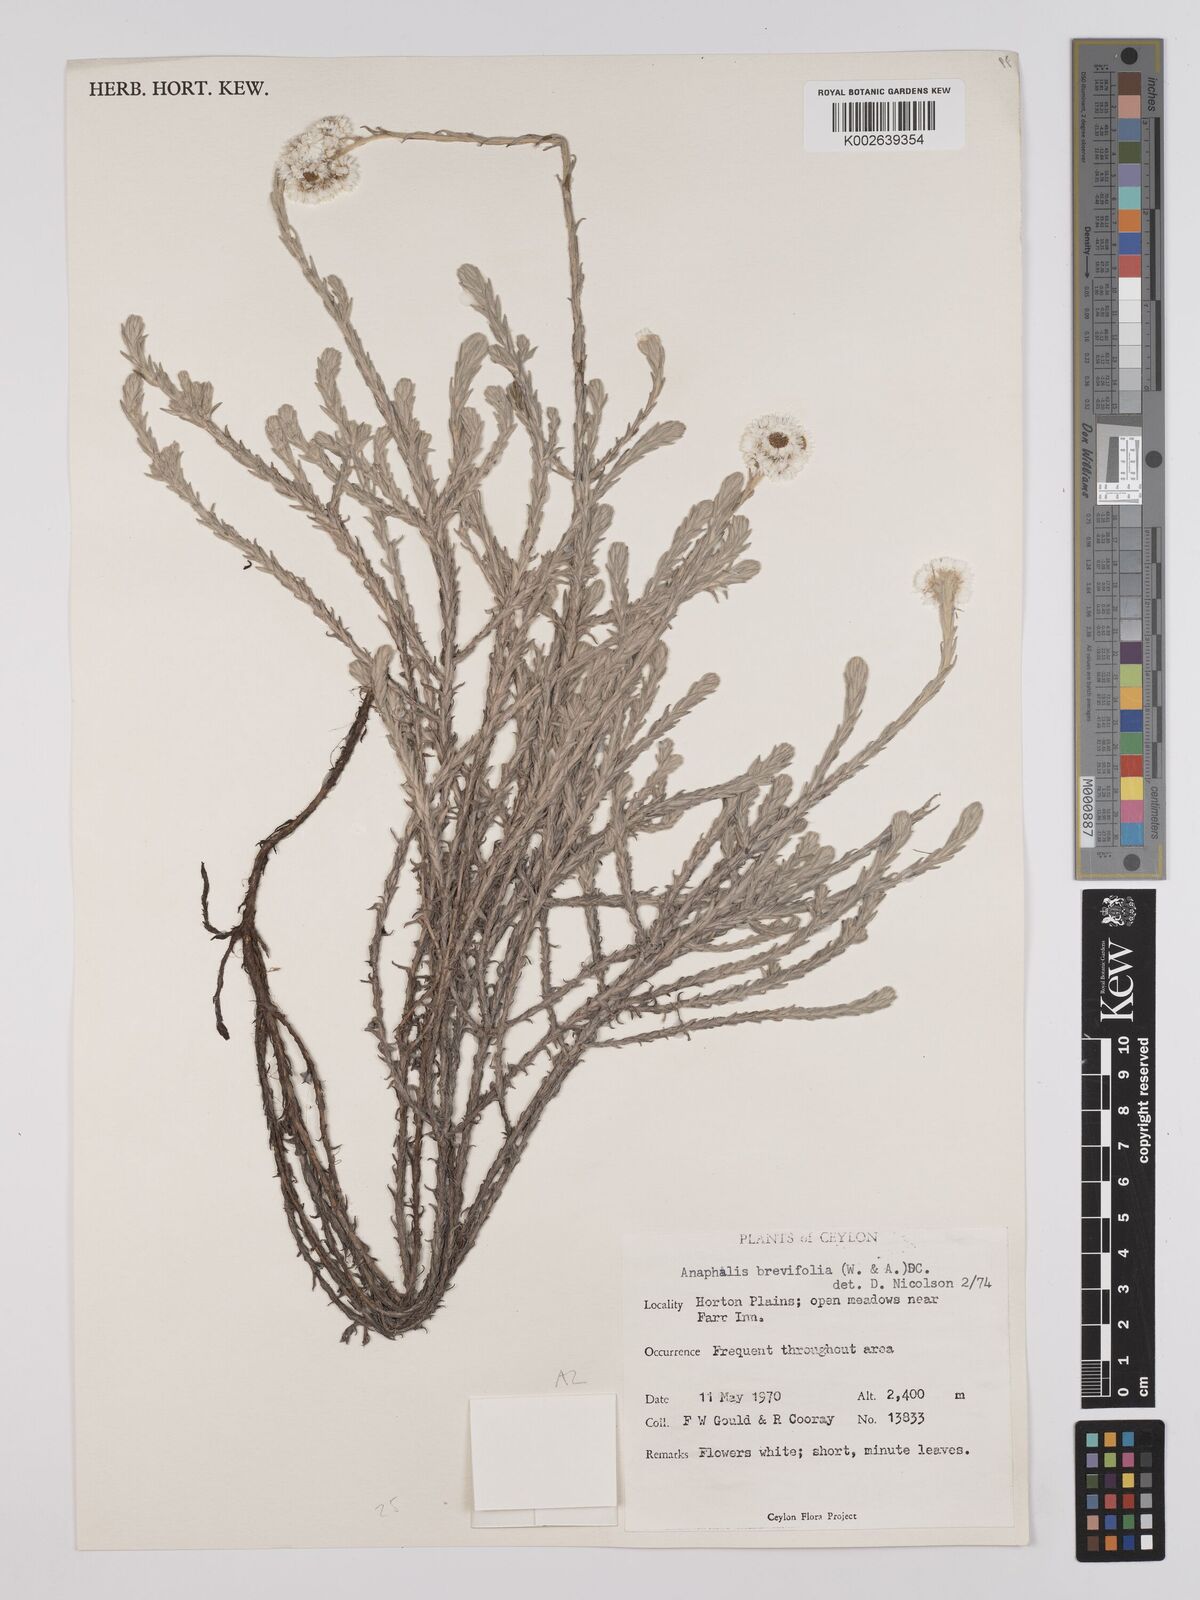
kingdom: Plantae
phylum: Tracheophyta
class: Magnoliopsida
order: Asterales
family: Asteraceae
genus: Anaphalis
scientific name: Anaphalis brevifolia
